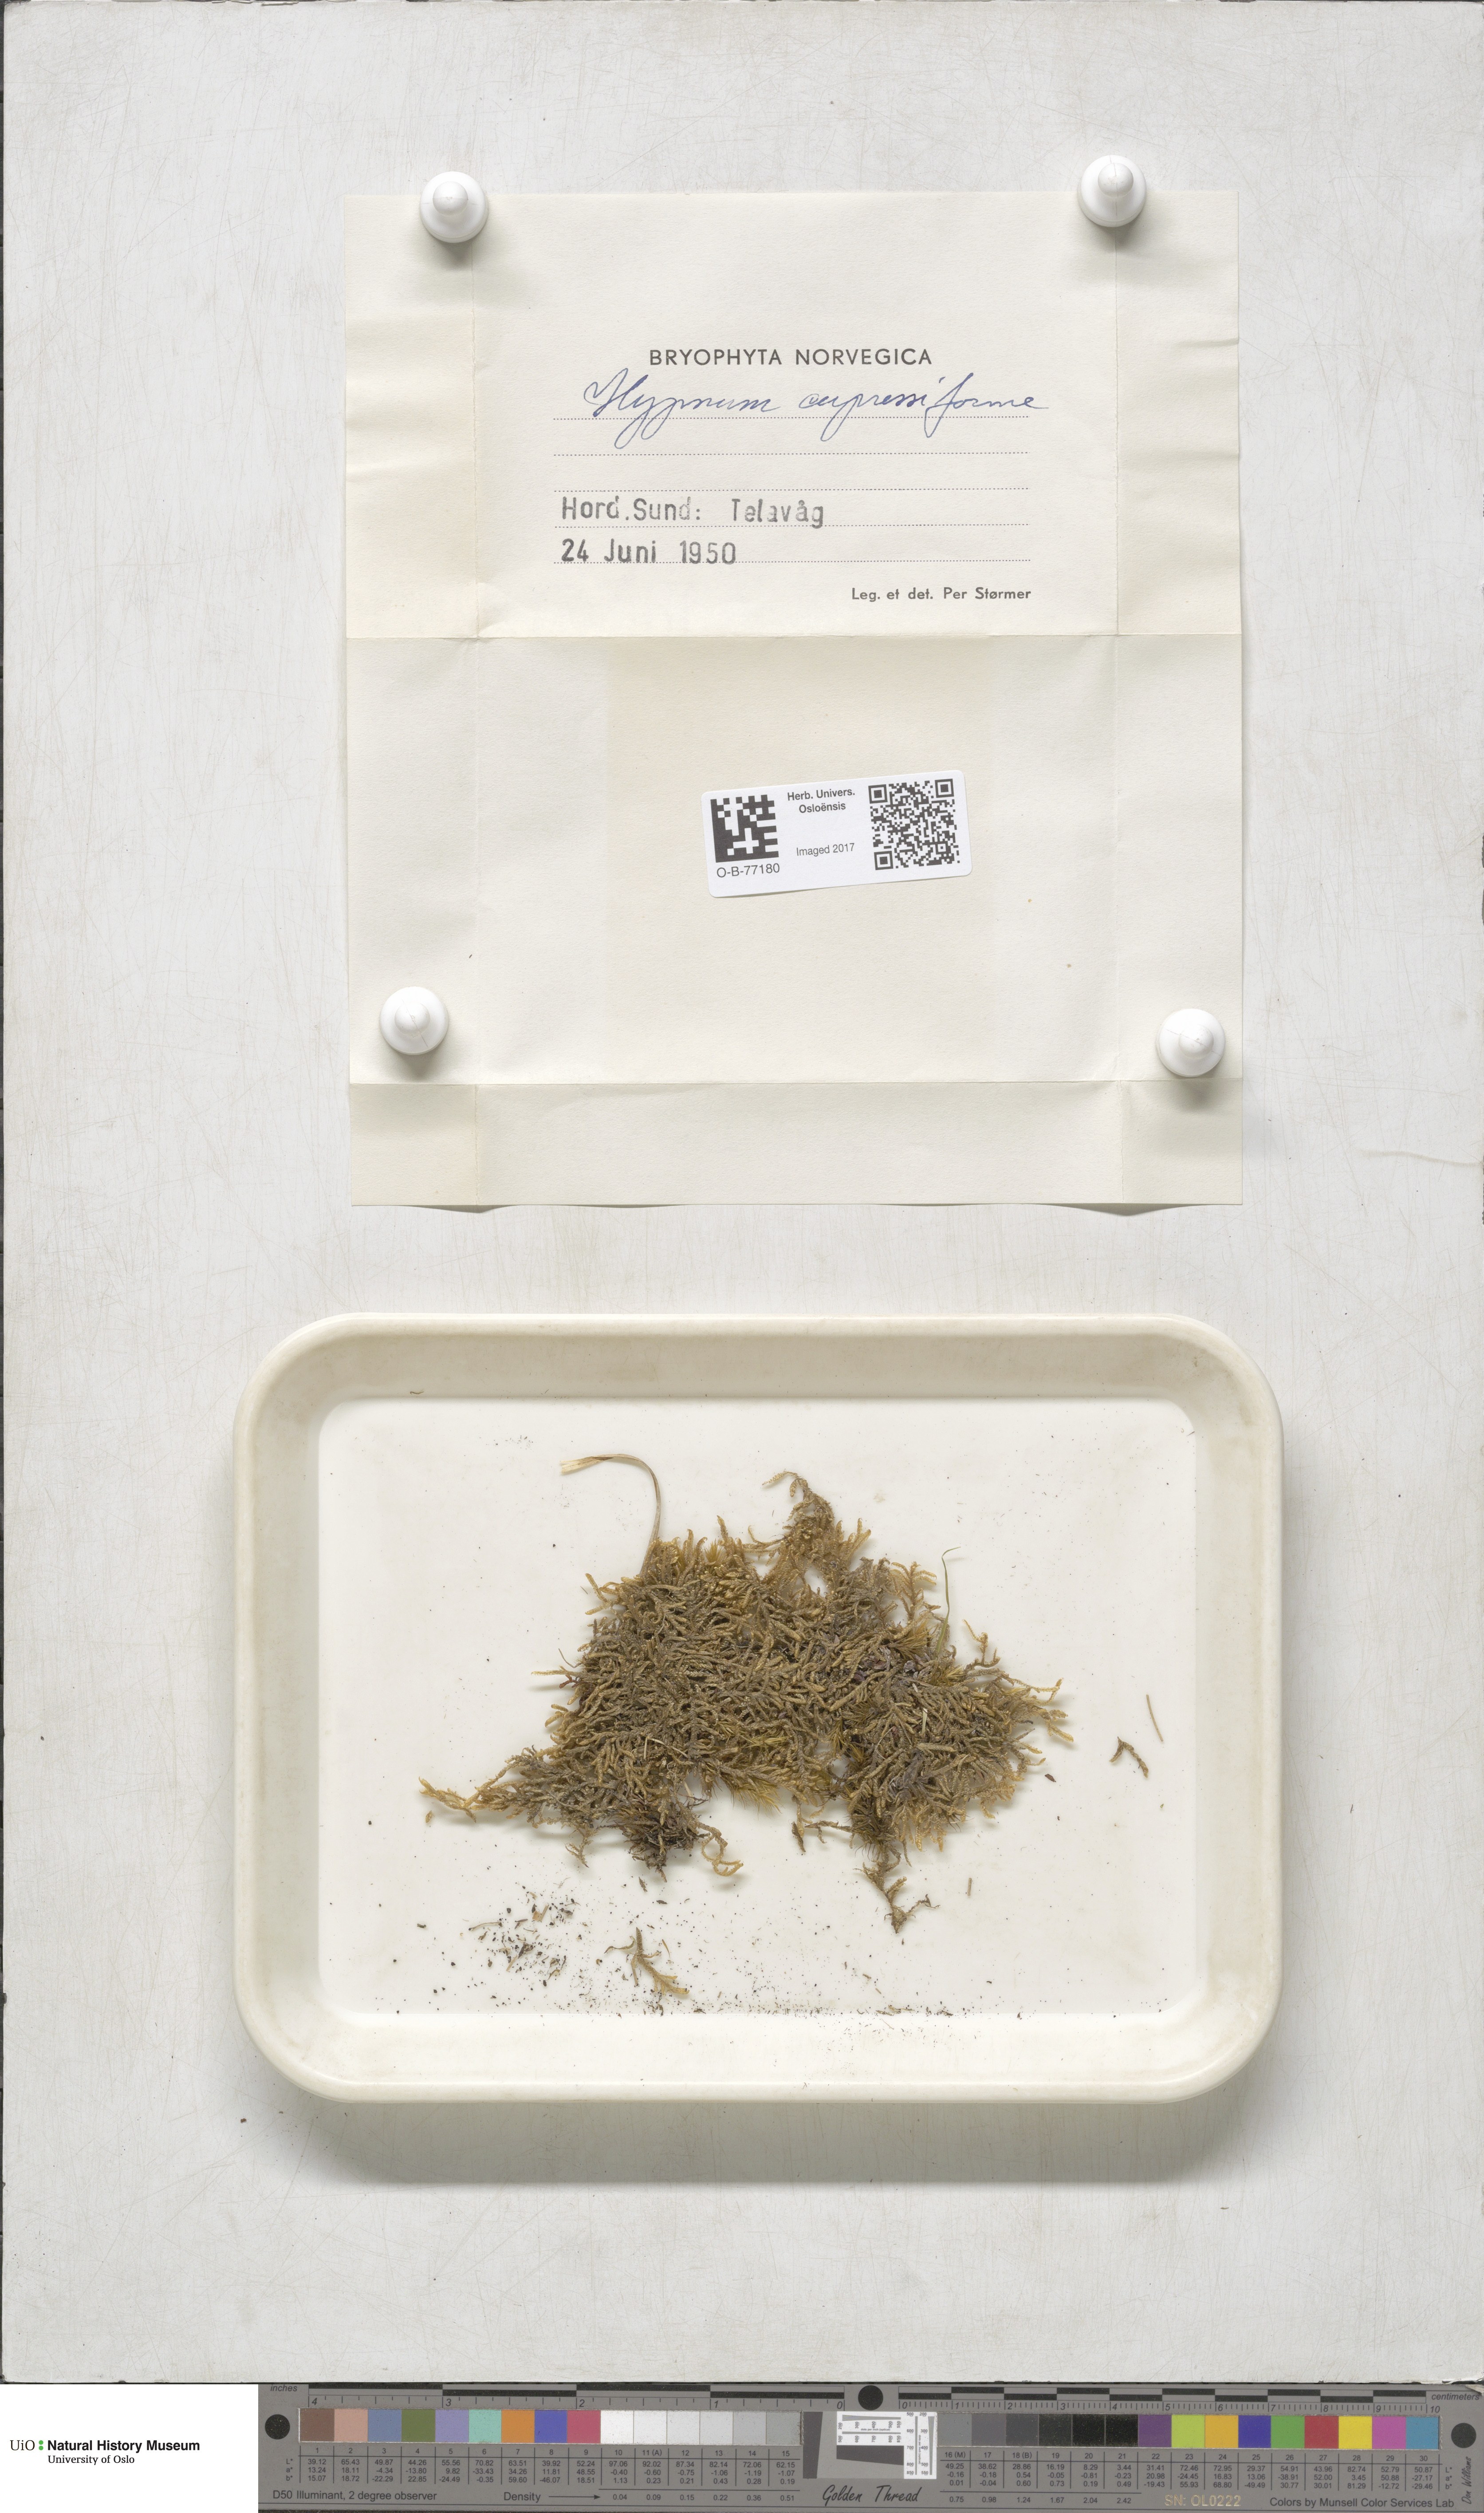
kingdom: Plantae
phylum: Bryophyta
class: Bryopsida
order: Hypnales
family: Hypnaceae
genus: Hypnum
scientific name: Hypnum cupressiforme
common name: Cypress-leaved plait-moss
